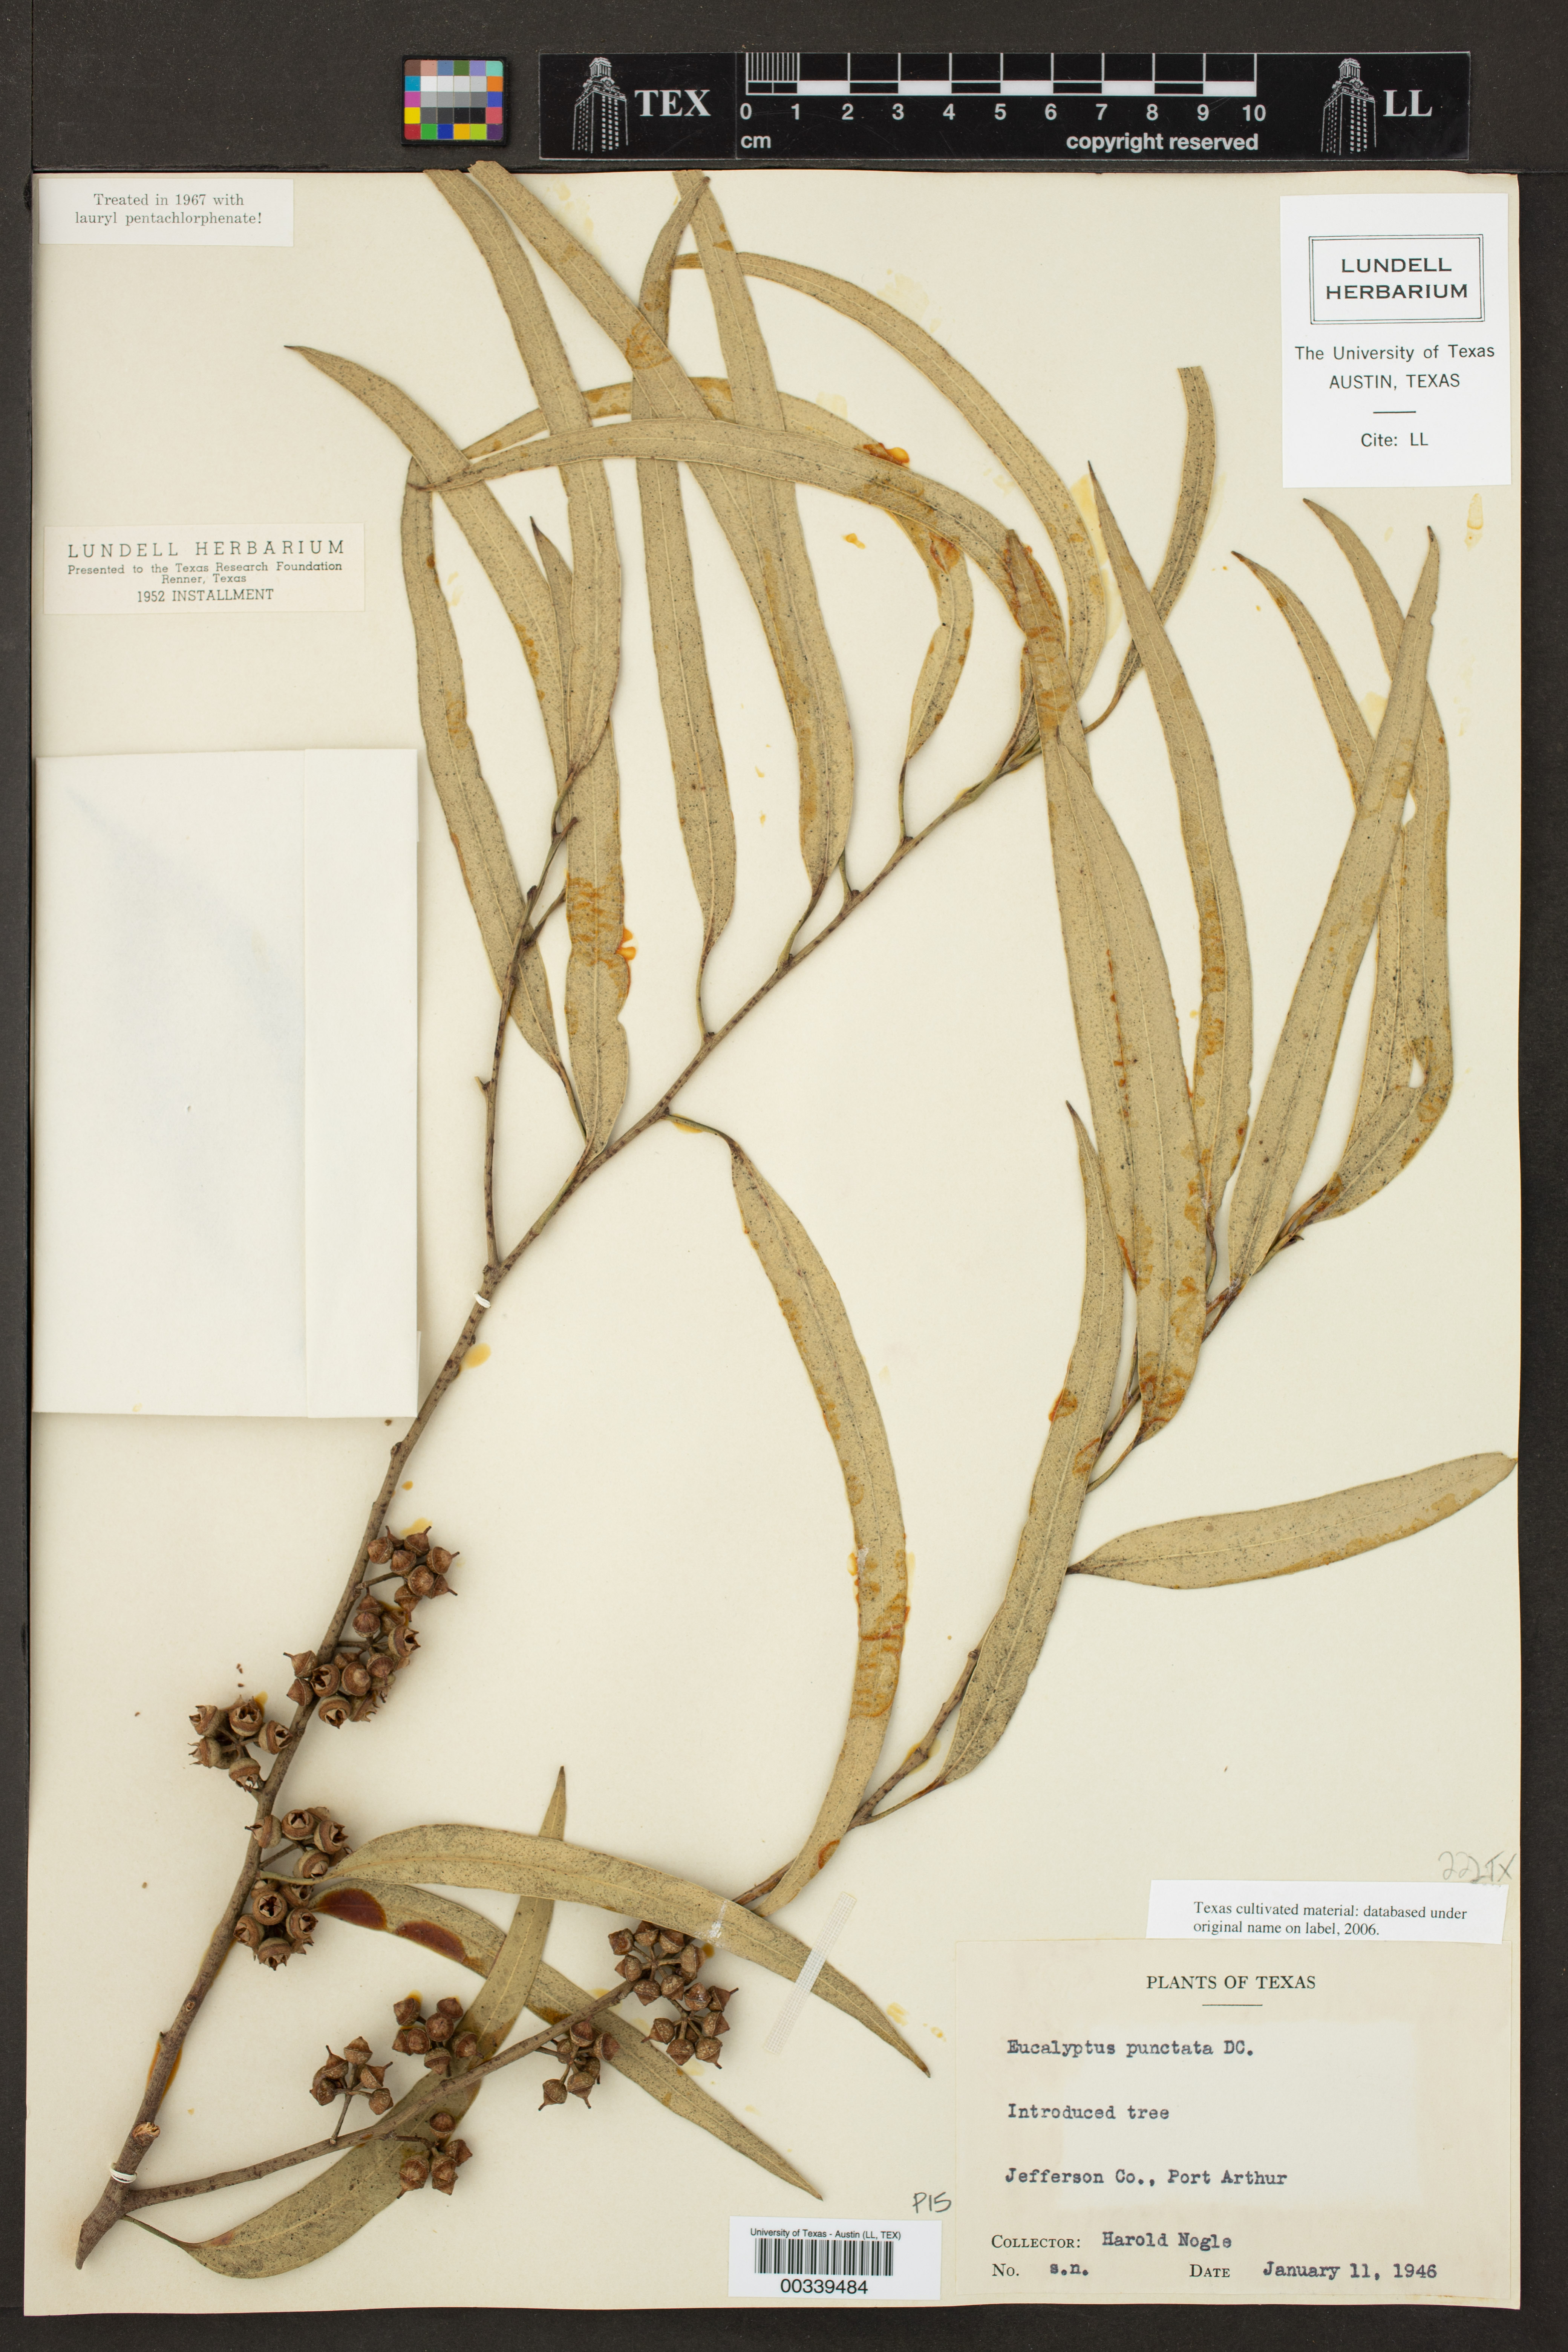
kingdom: Plantae
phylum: Tracheophyta
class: Magnoliopsida
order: Myrtales
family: Myrtaceae
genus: Eucalyptus
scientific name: Eucalyptus punctata
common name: Gray gum
